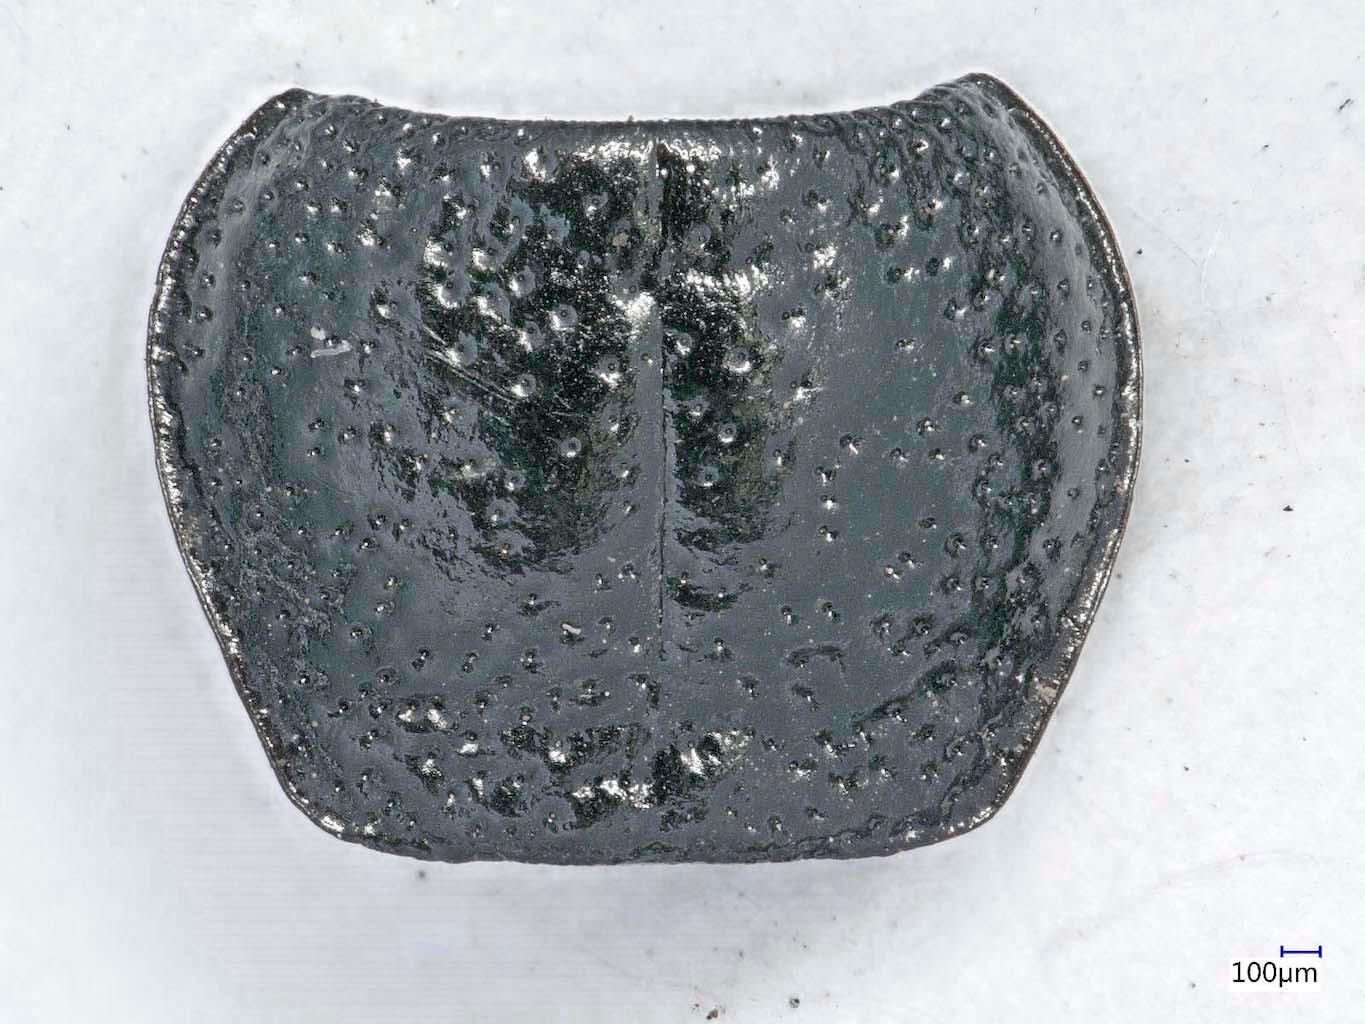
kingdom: Animalia
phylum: Arthropoda
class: Insecta
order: Coleoptera
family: Carabidae
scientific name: Carabidae
